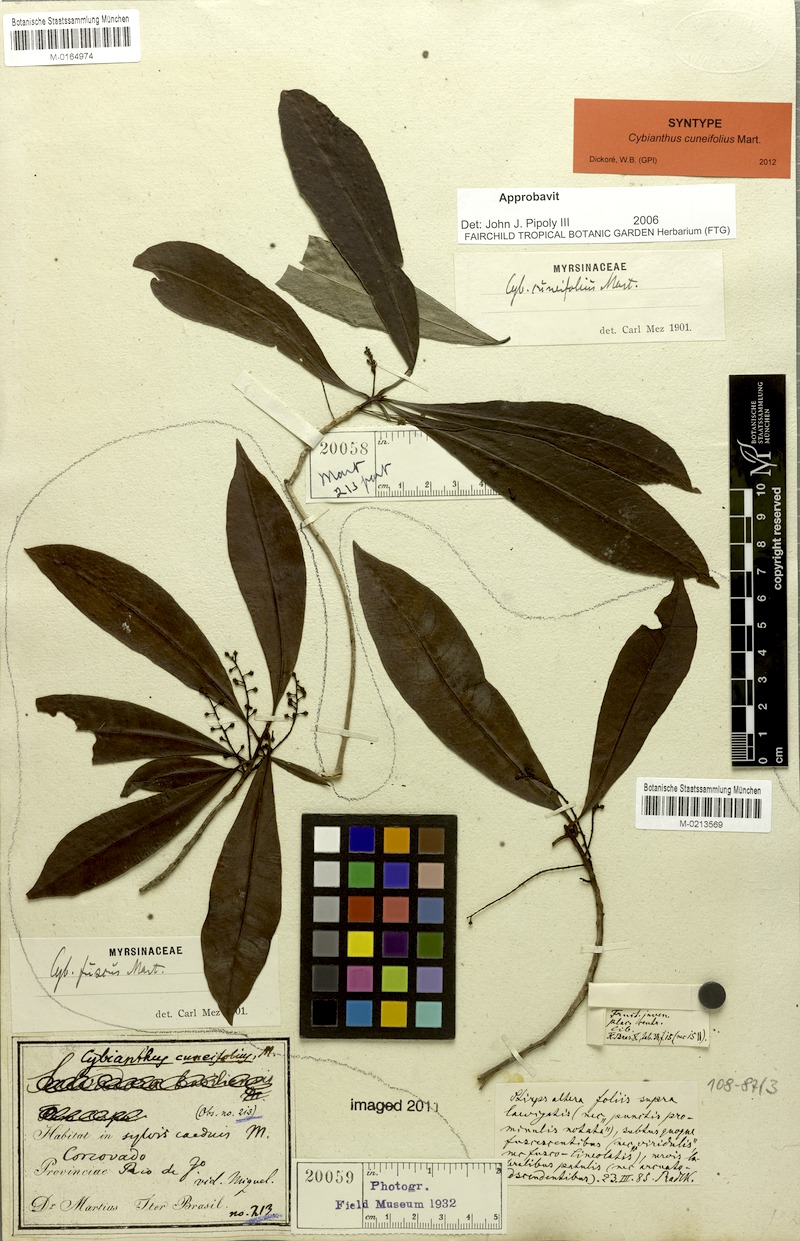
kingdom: Plantae
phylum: Tracheophyta
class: Magnoliopsida
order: Ericales
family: Primulaceae
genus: Cybianthus
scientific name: Cybianthus fuscus
